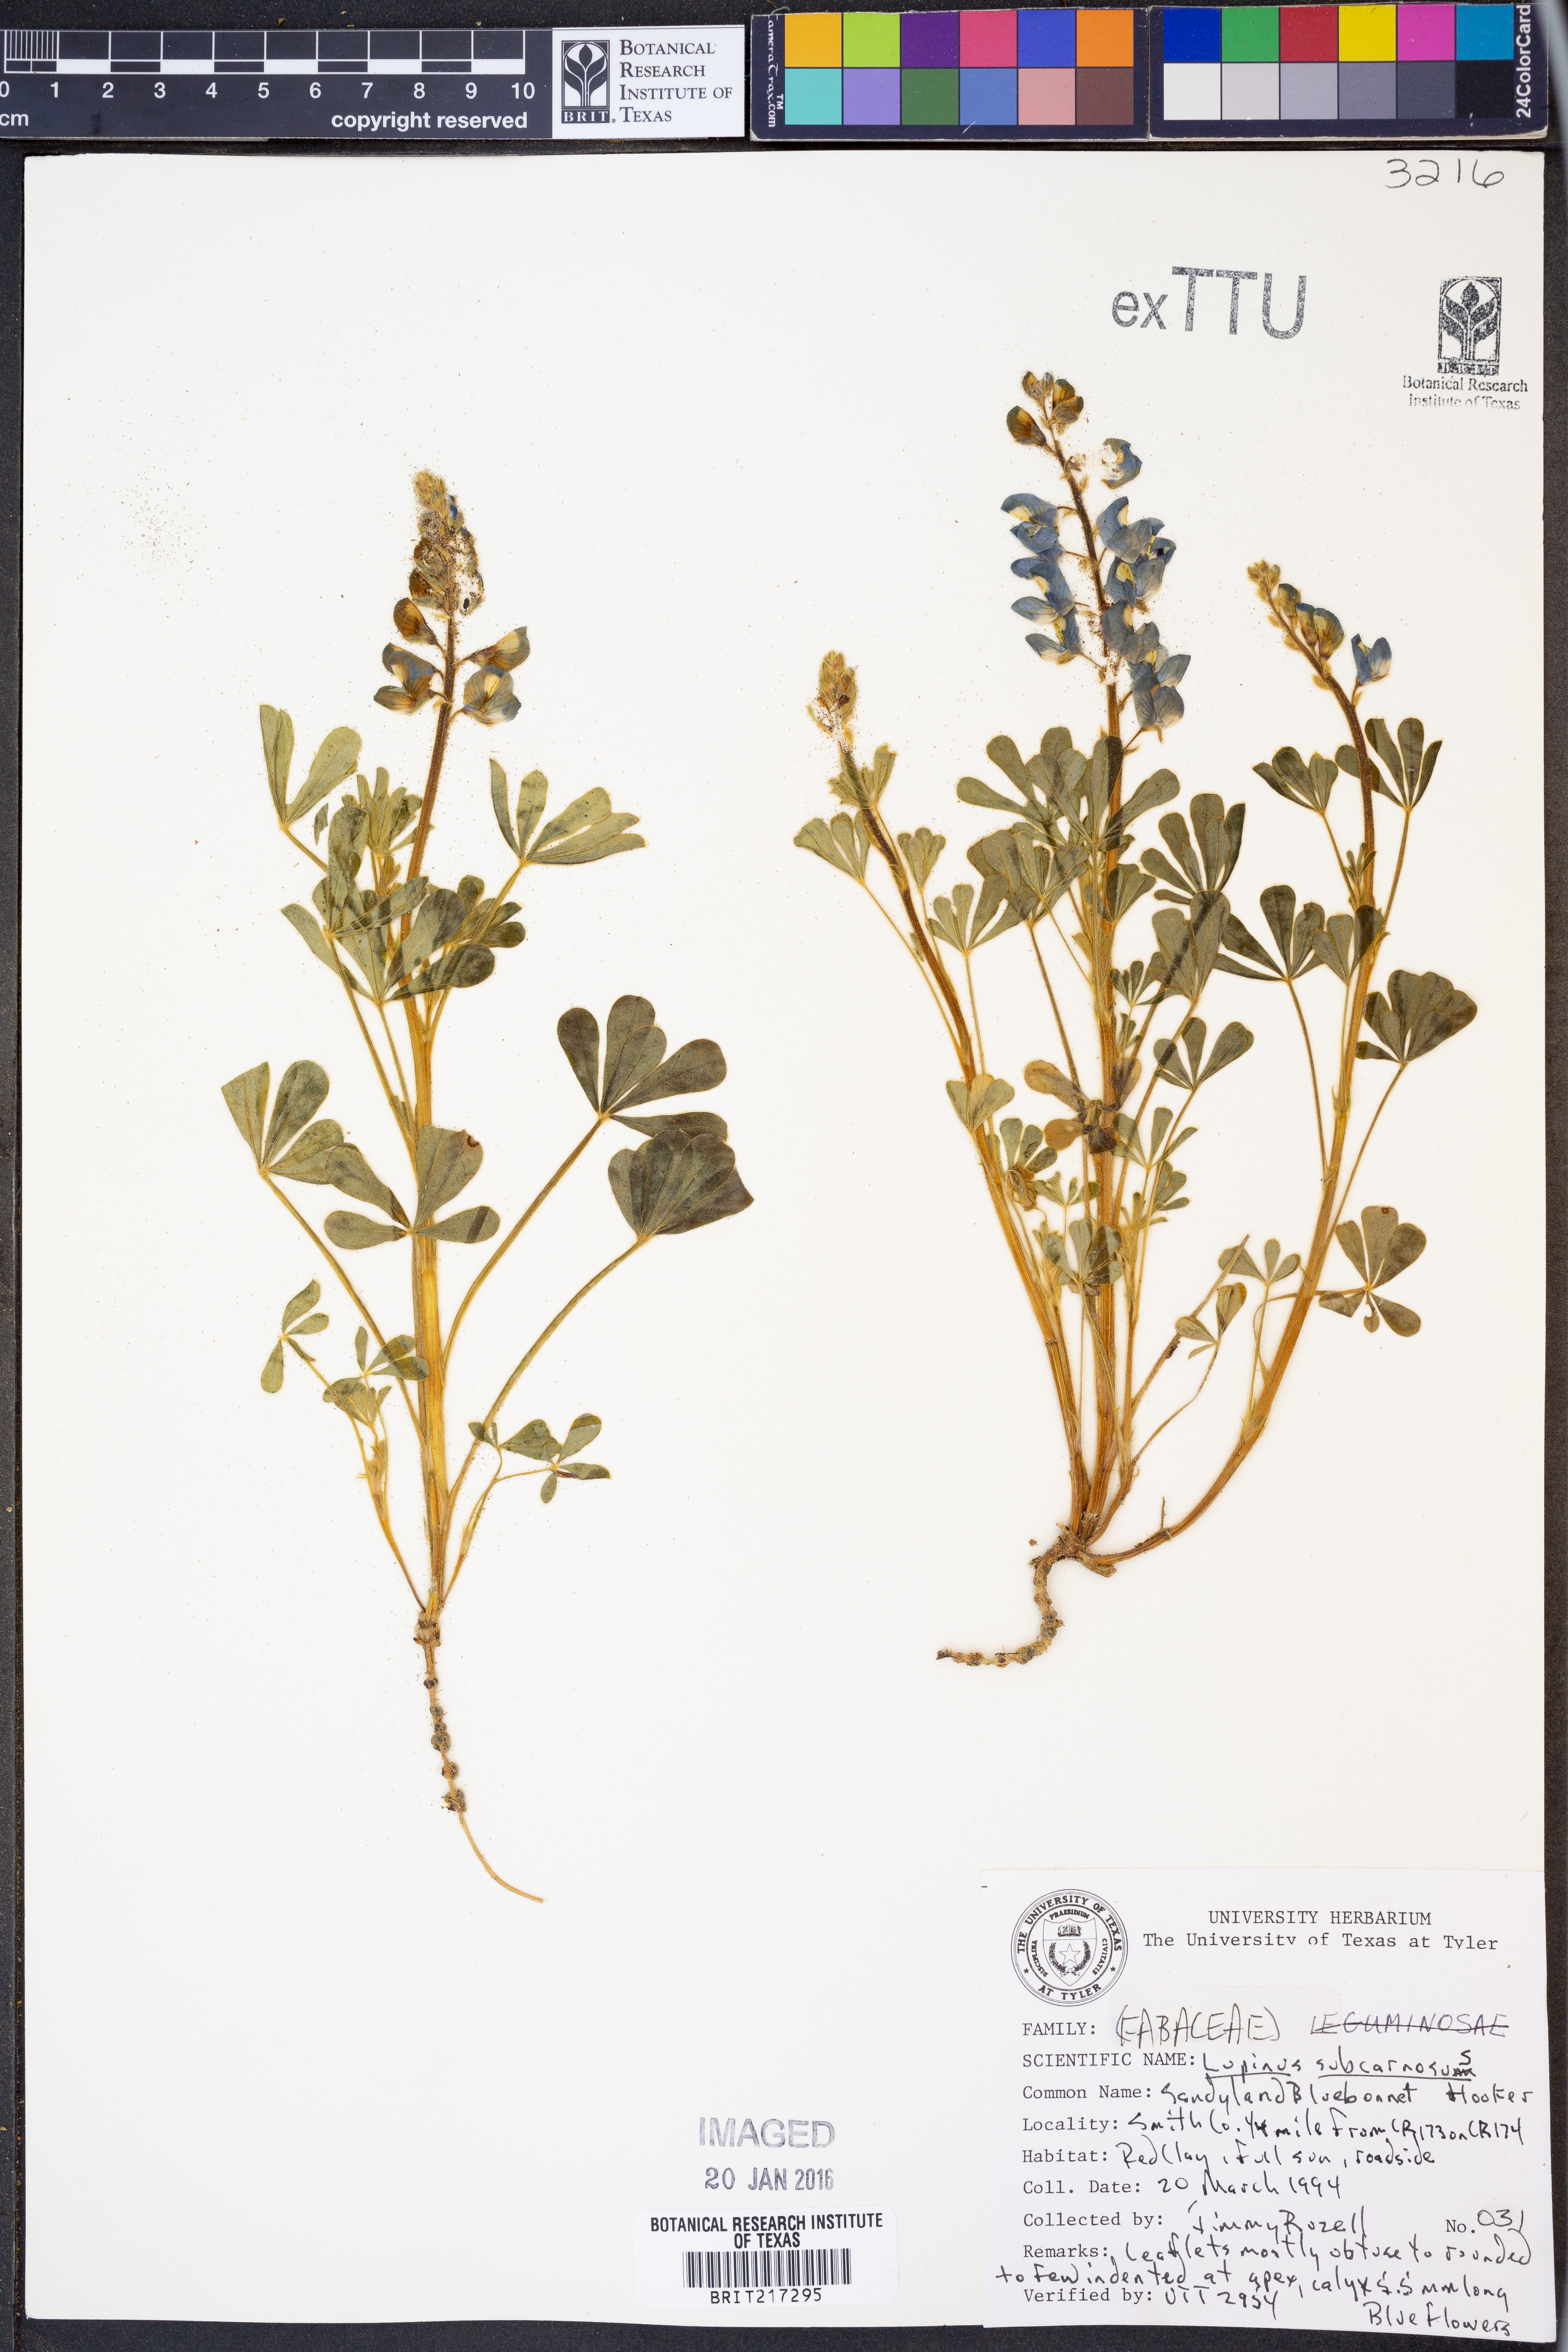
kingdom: Plantae
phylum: Tracheophyta
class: Magnoliopsida
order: Fabales
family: Fabaceae
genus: Lupinus
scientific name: Lupinus subcarnosus
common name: Texas bluebonnet
